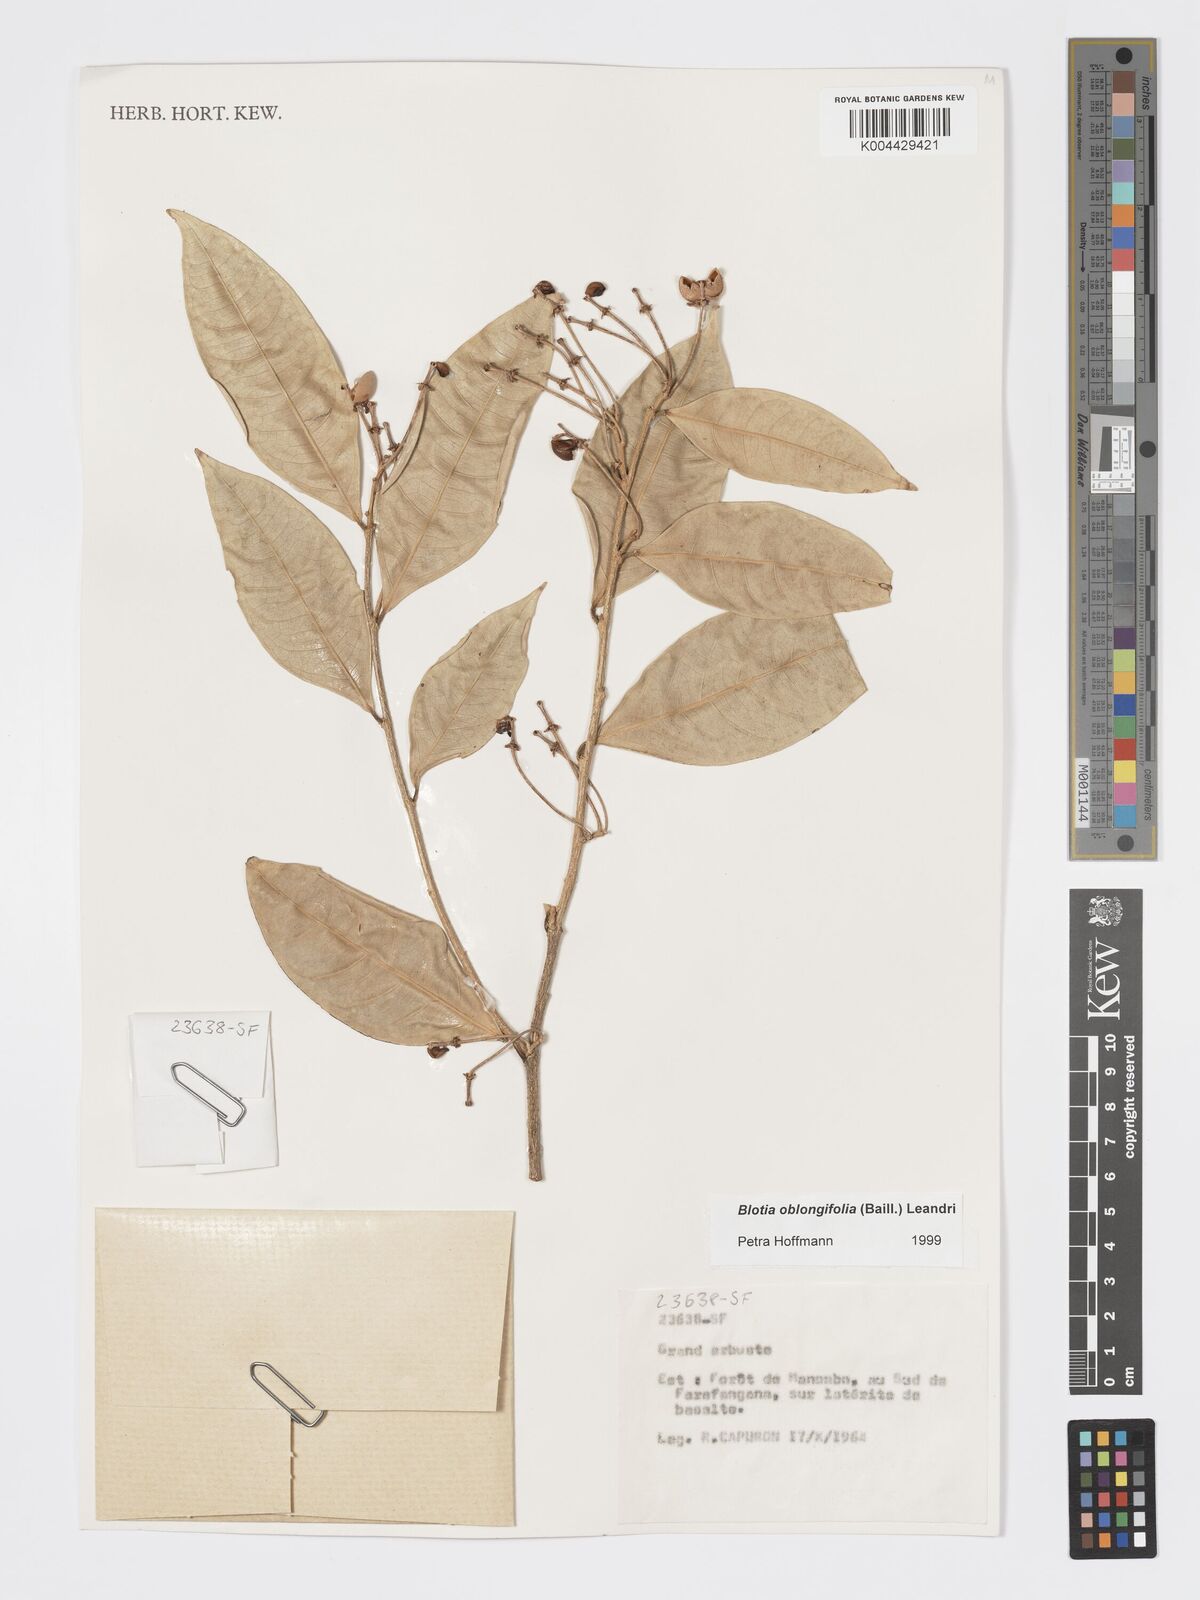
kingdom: Plantae
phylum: Tracheophyta
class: Magnoliopsida
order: Malpighiales
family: Phyllanthaceae
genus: Wielandia
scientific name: Wielandia oblongifolia
